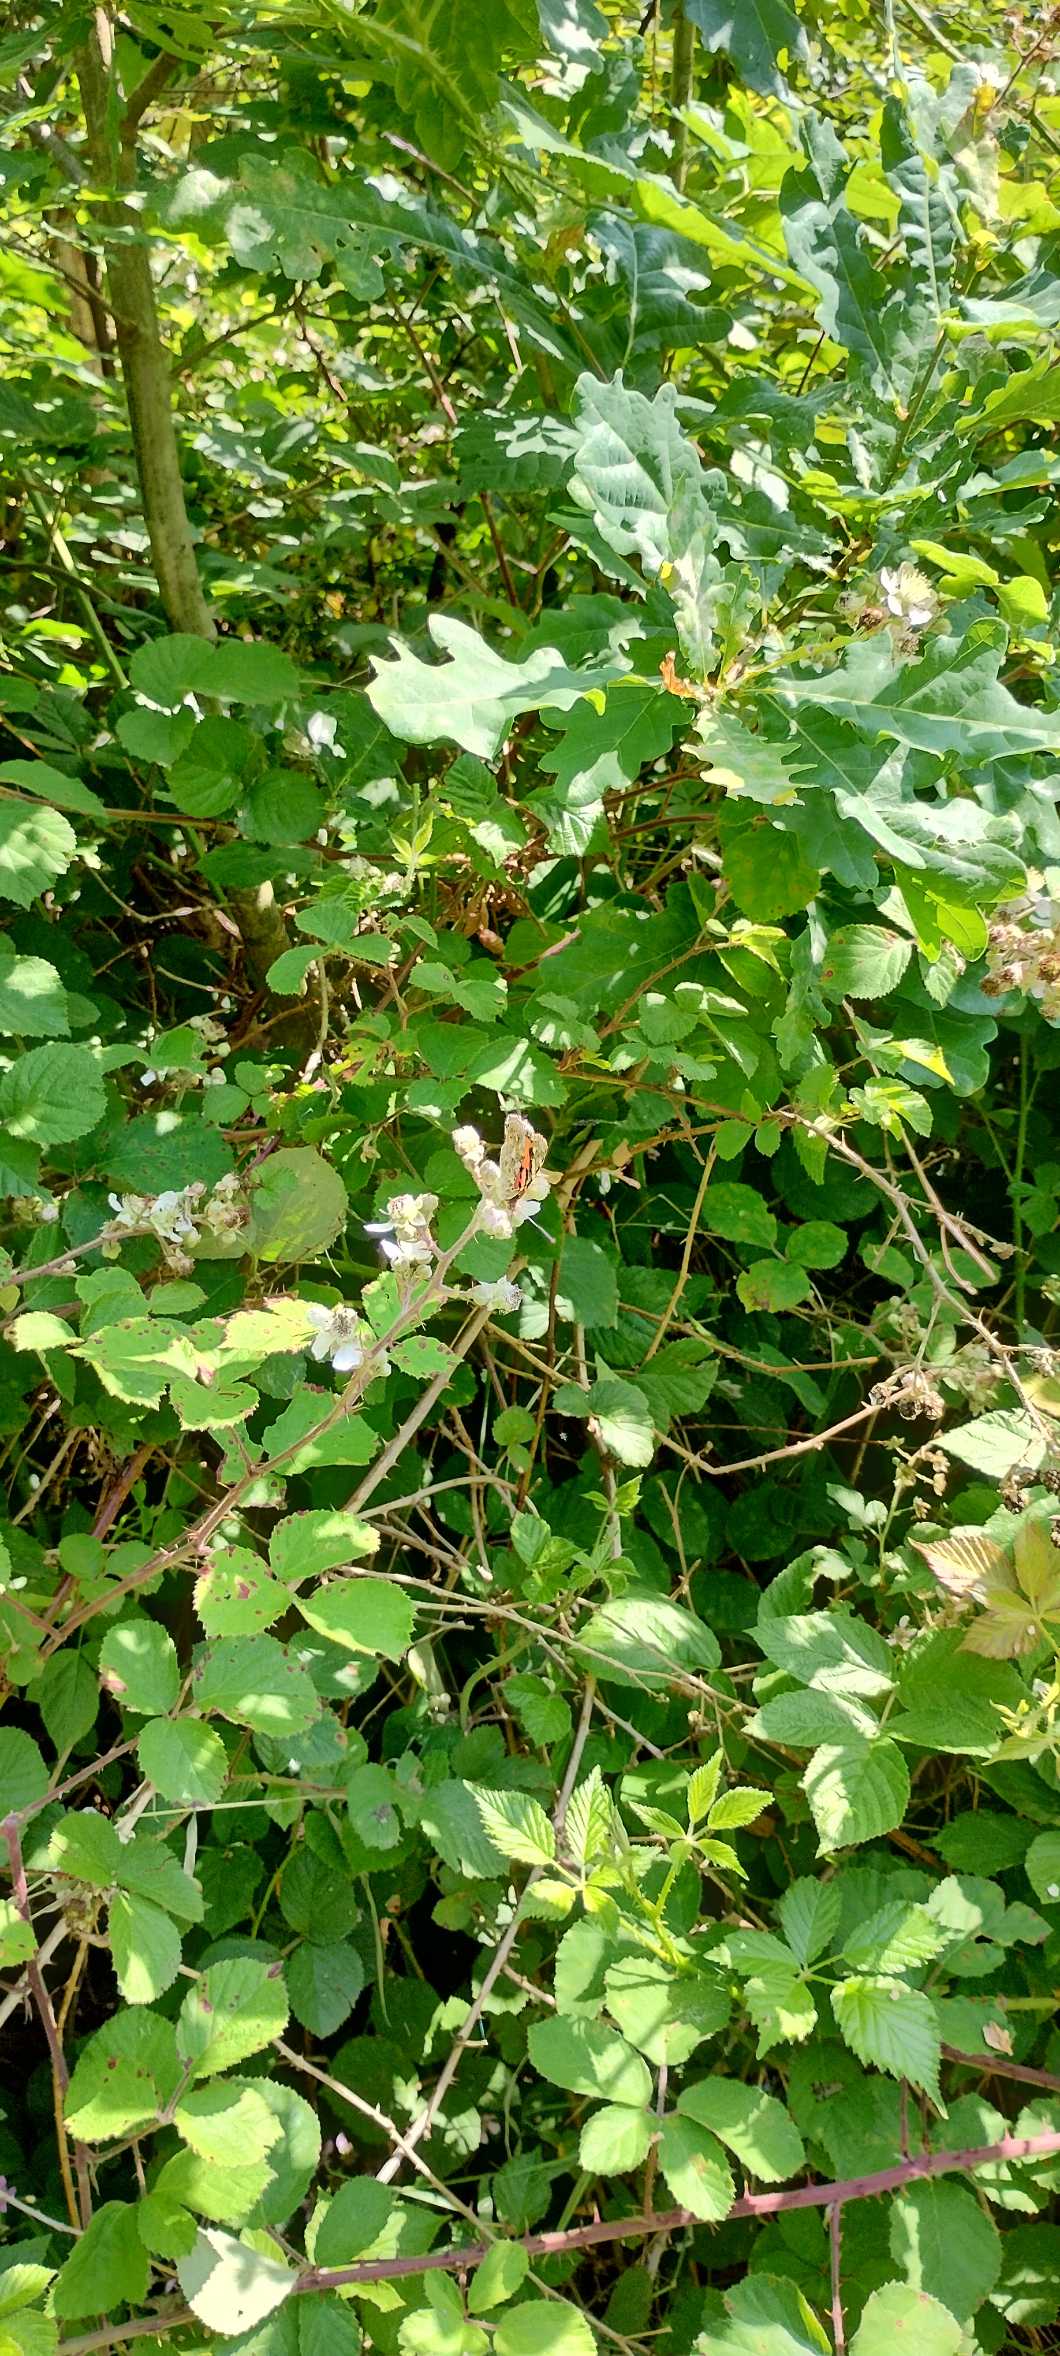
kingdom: Animalia
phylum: Arthropoda
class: Insecta
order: Lepidoptera
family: Nymphalidae
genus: Vanessa
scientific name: Vanessa cardui
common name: Tidselsommerfugl
